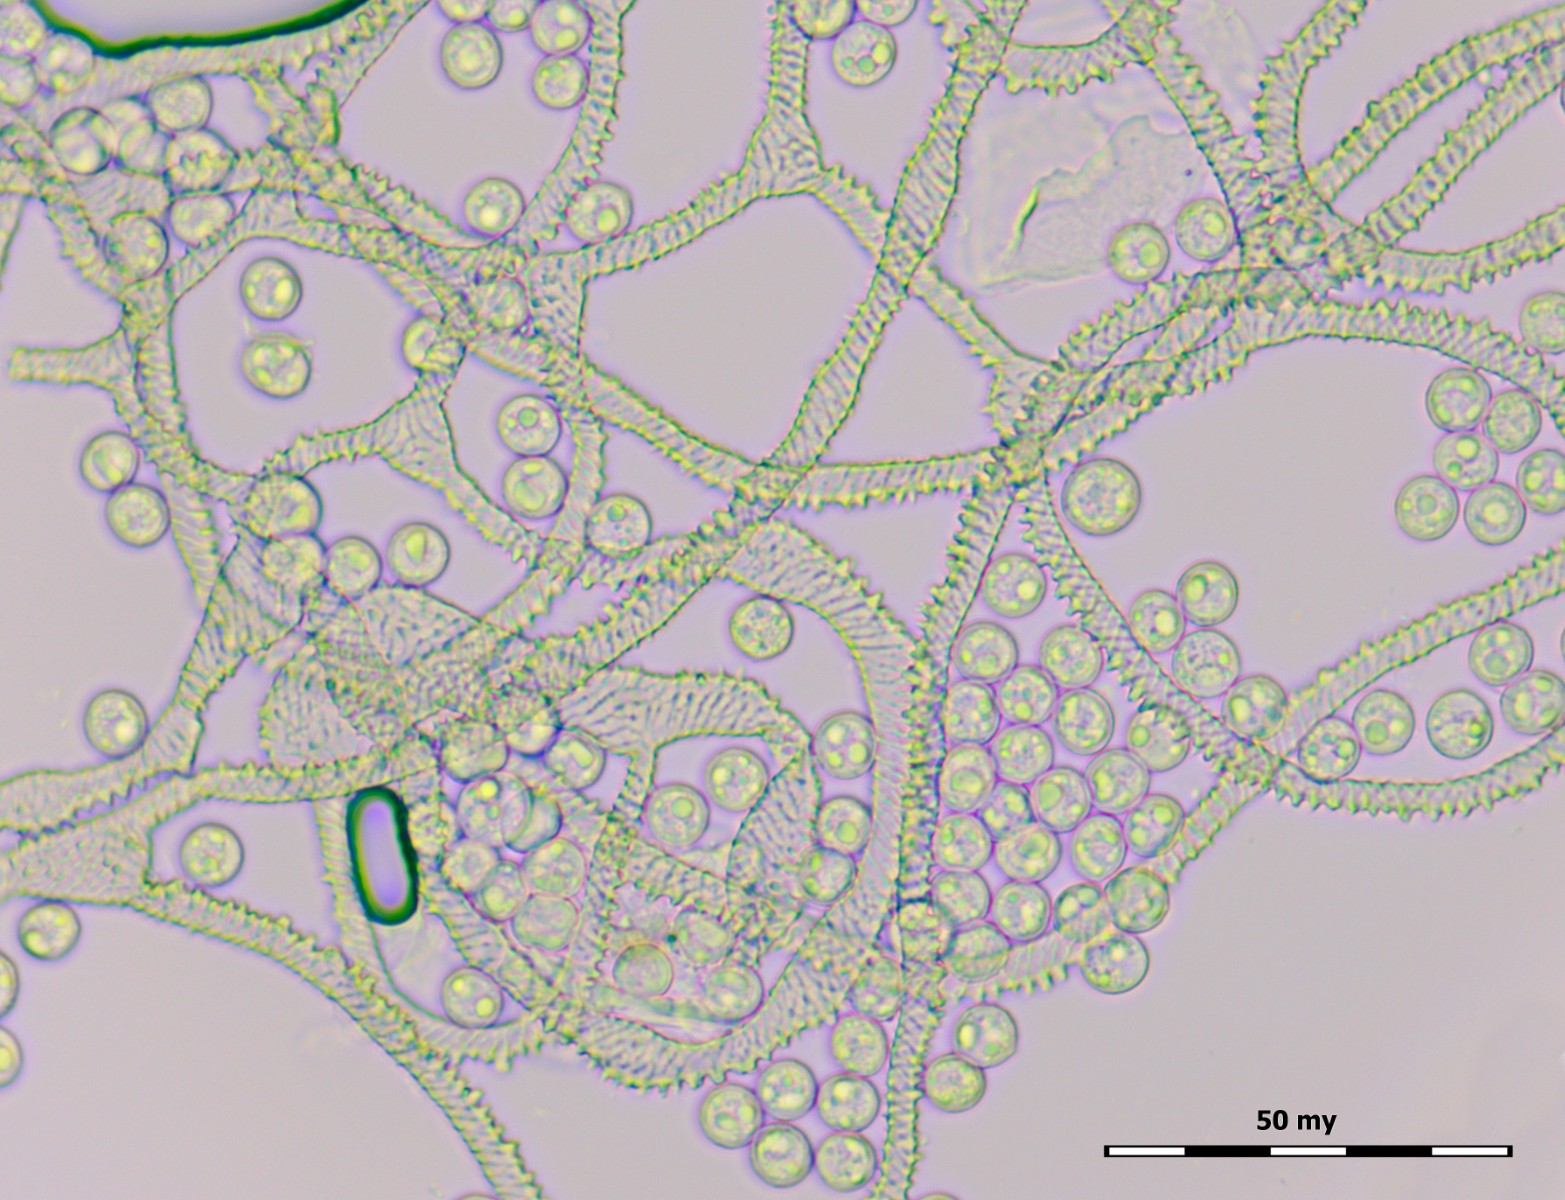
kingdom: Protozoa
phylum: Mycetozoa
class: Myxomycetes
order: Trichiales
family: Arcyriaceae
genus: Arcyria
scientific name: Arcyria stipata
